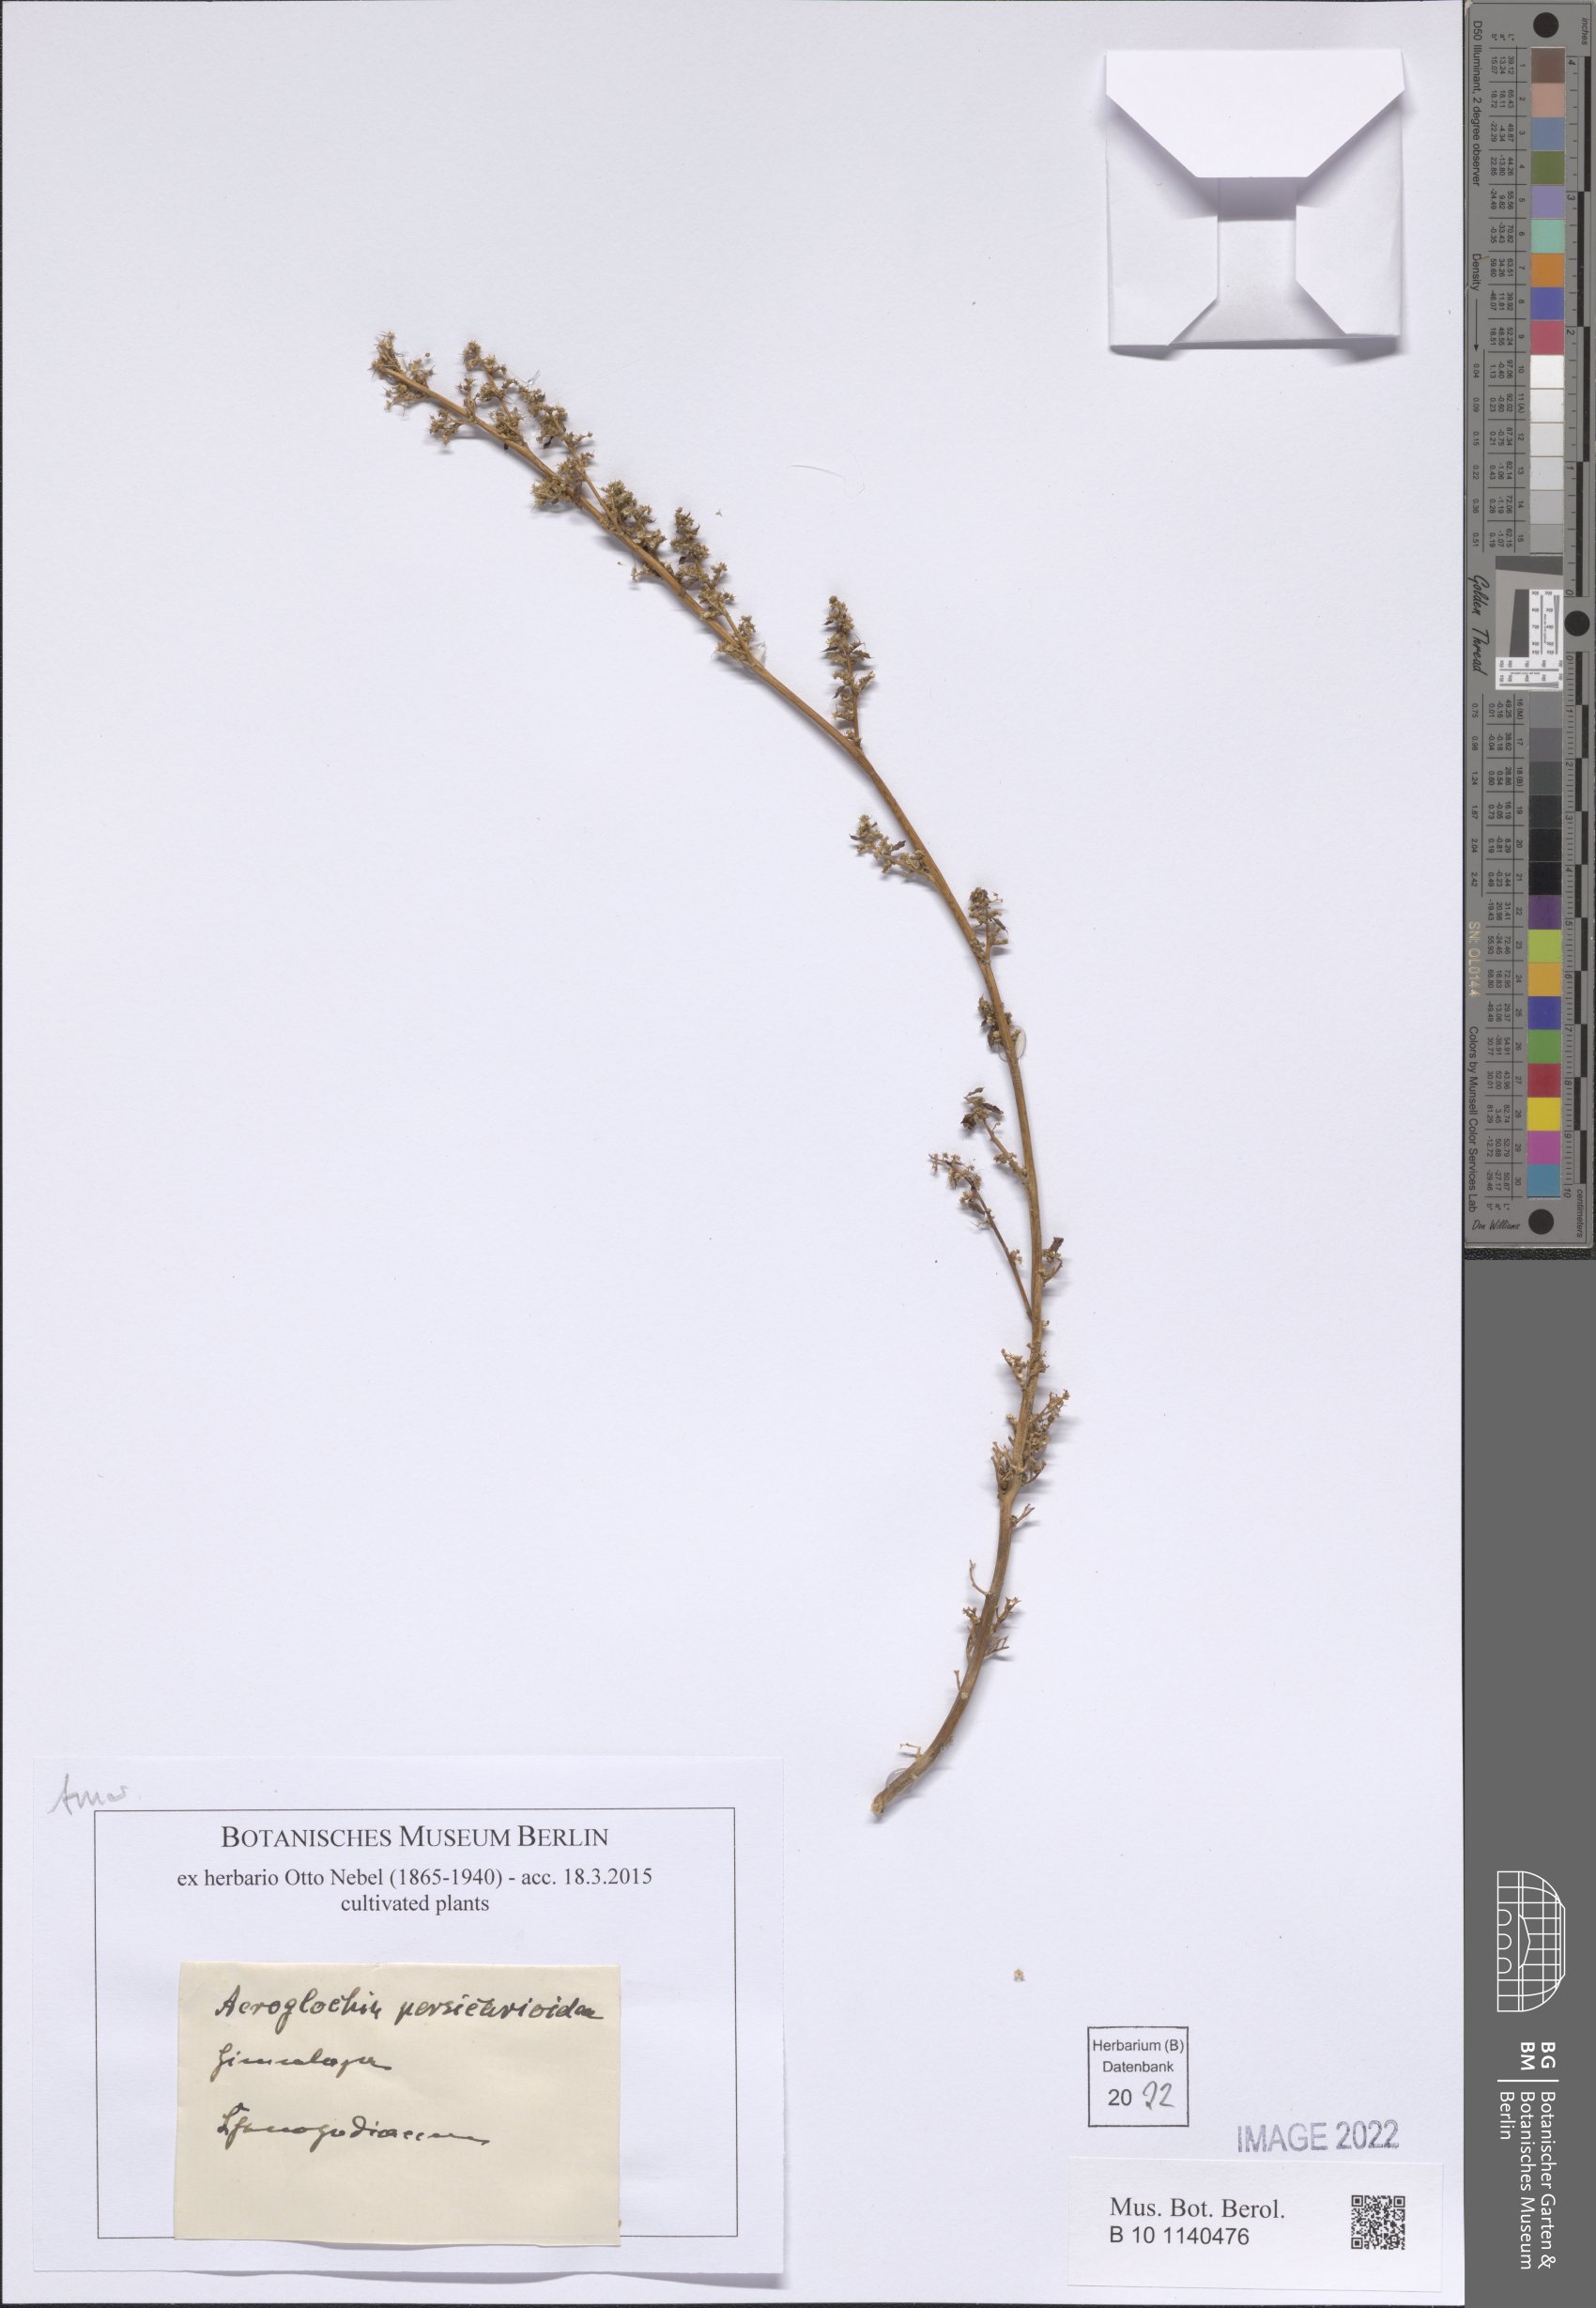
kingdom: Plantae
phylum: Tracheophyta
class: Magnoliopsida
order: Caryophyllales
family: Amaranthaceae
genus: Acroglochin
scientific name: Acroglochin persicarioides
